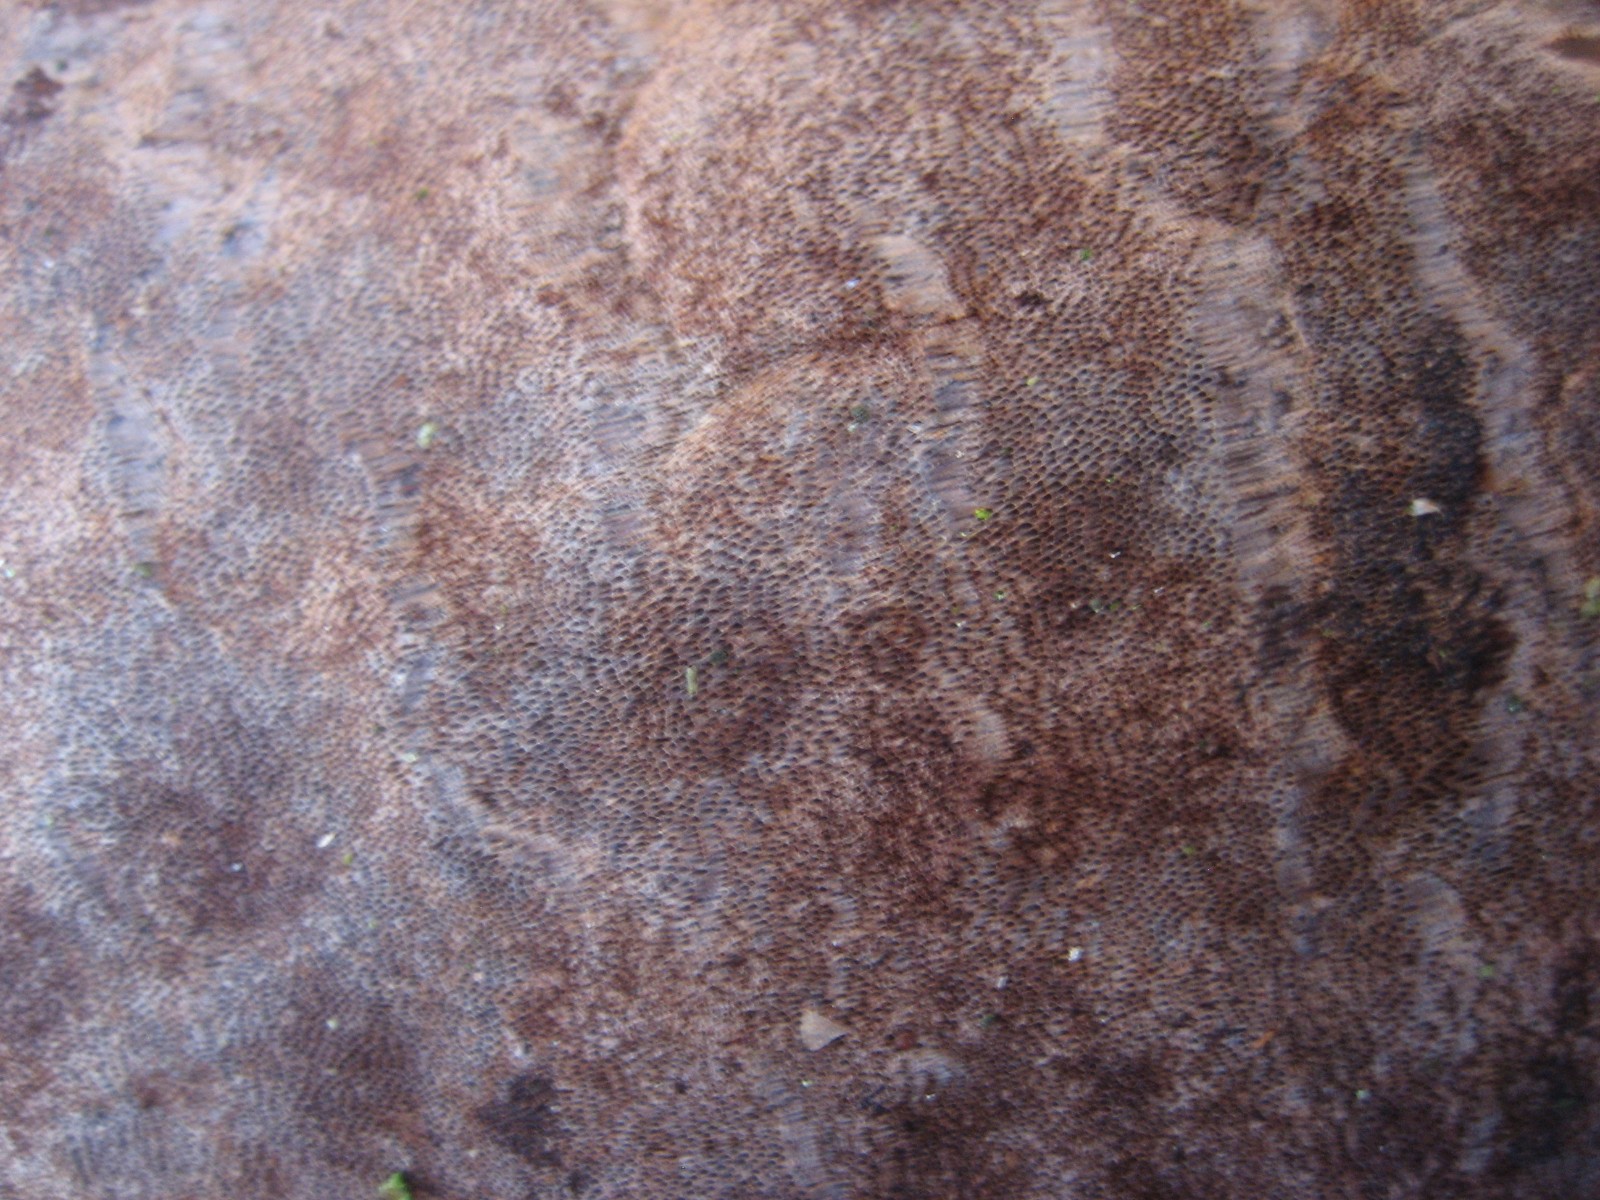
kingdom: Fungi
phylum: Basidiomycota
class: Agaricomycetes
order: Hymenochaetales
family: Hymenochaetaceae
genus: Phellinus
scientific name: Phellinus laevigatus
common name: glat ildporesvamp
